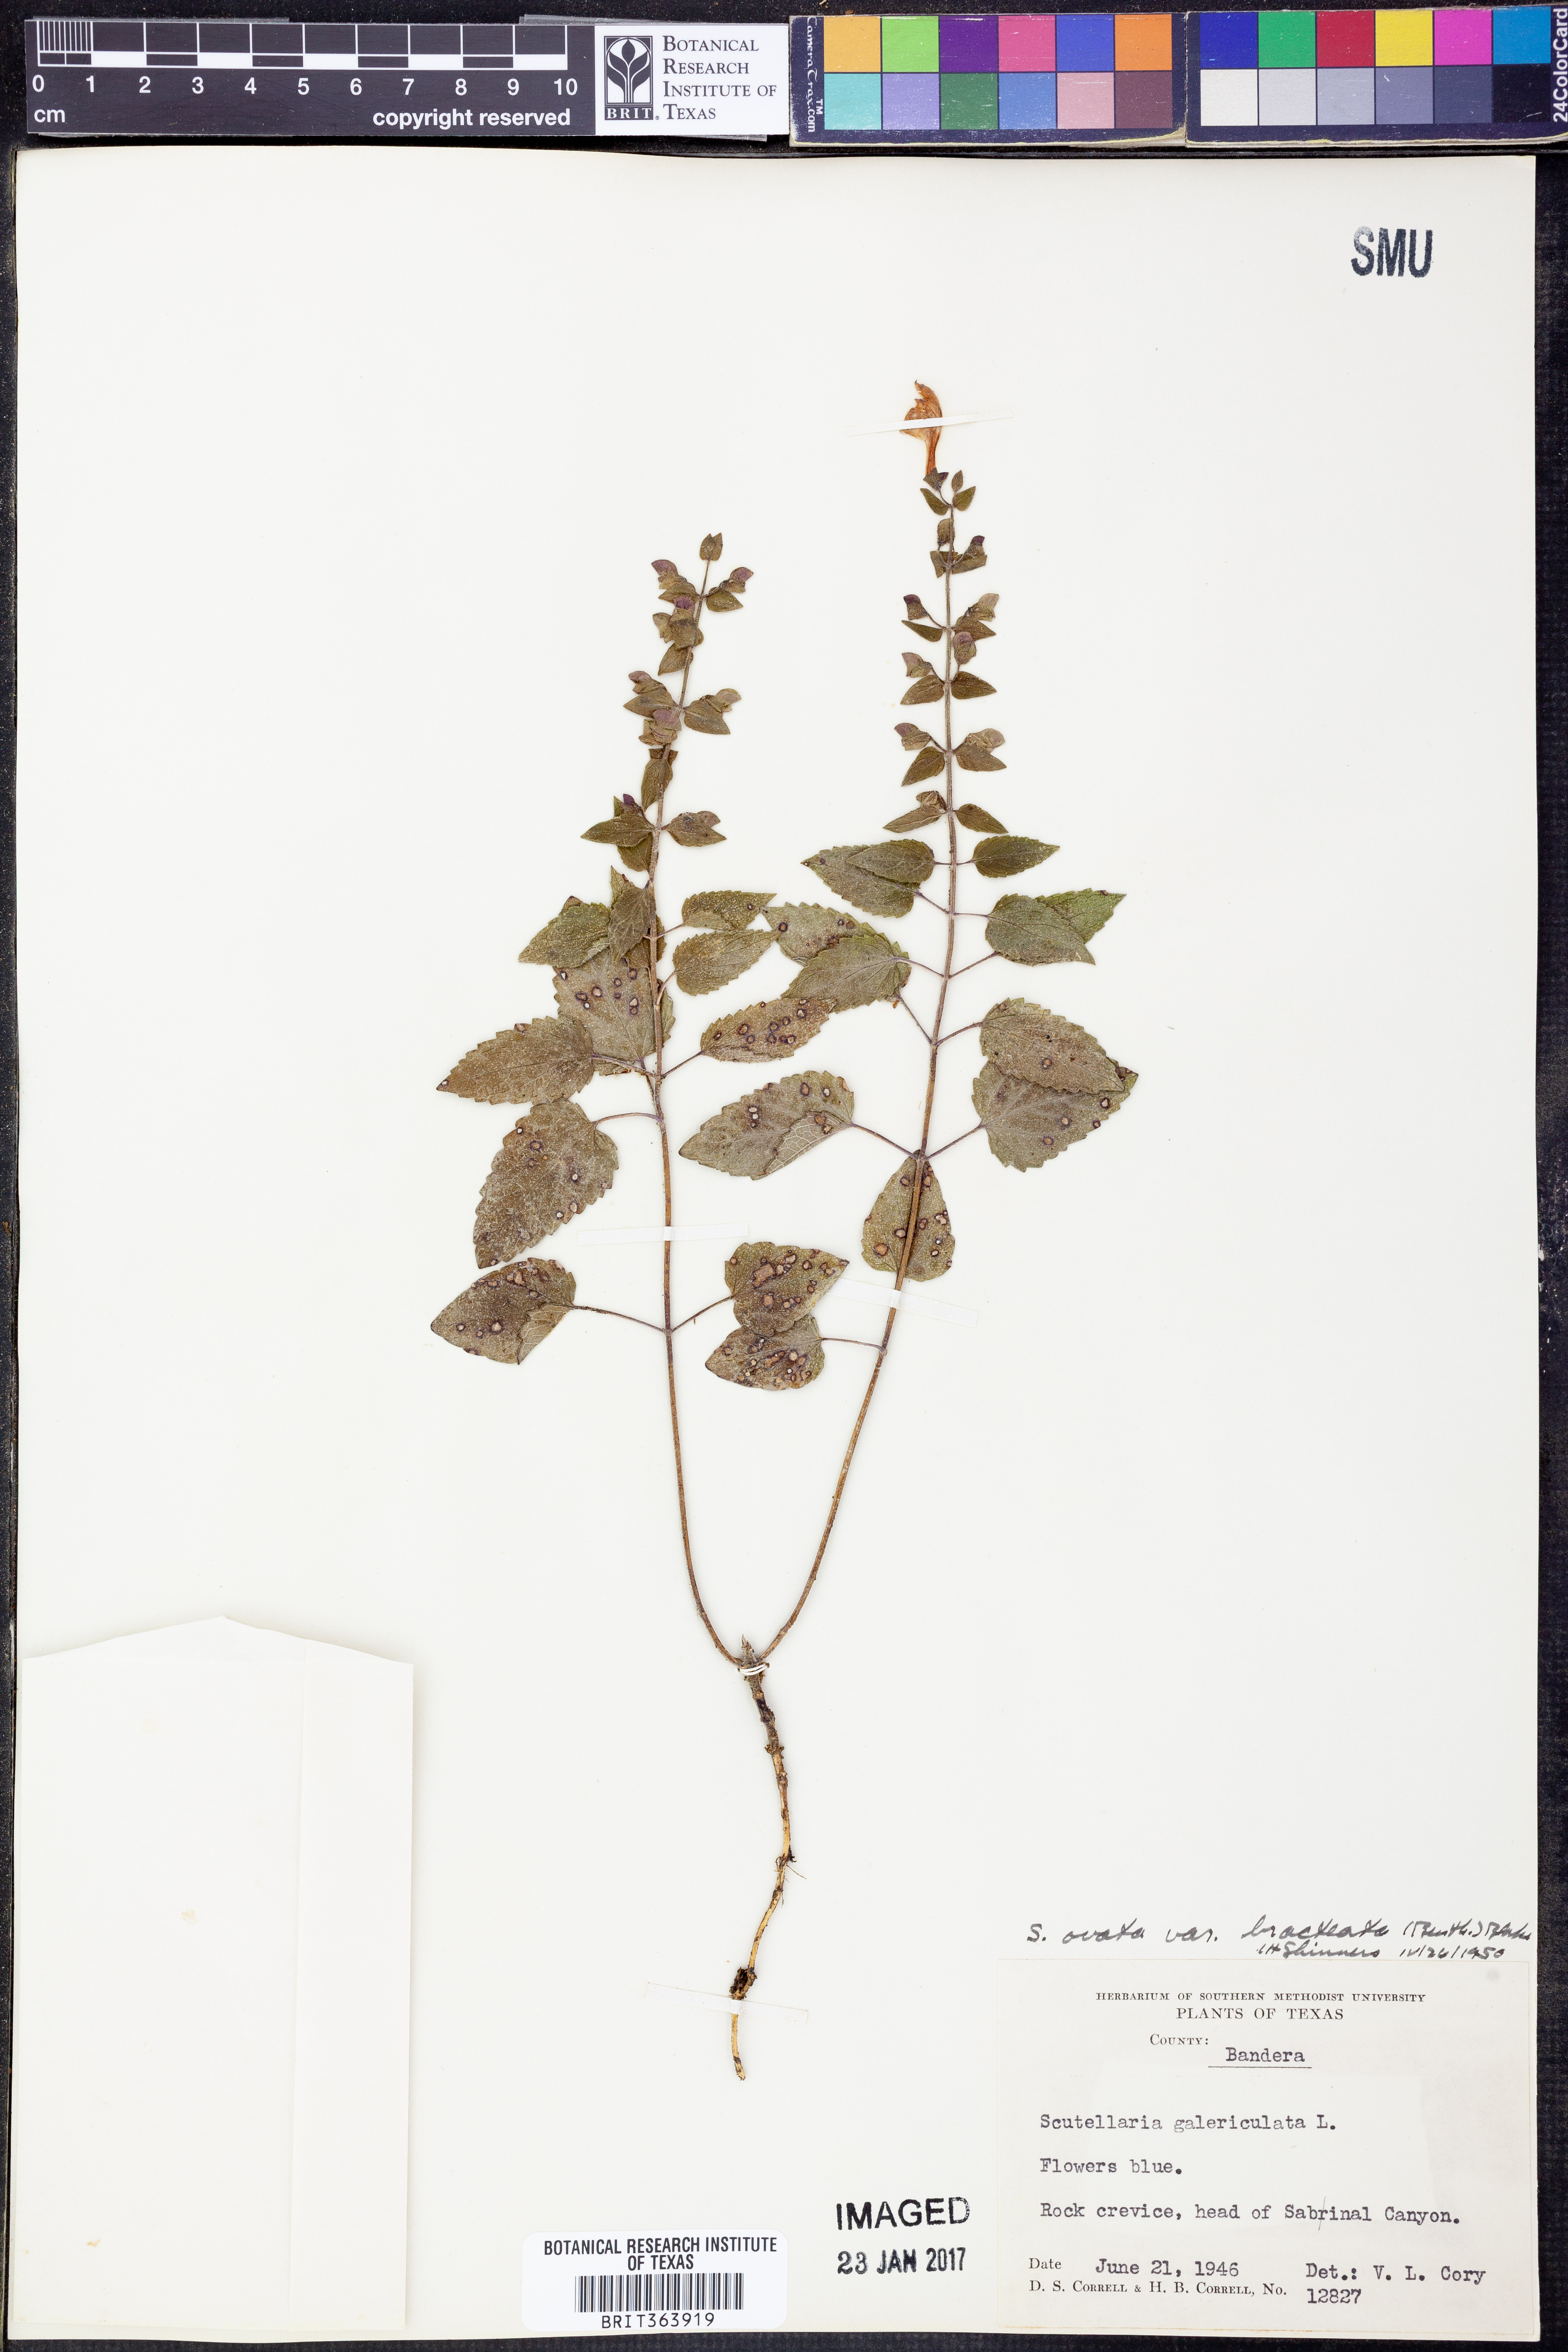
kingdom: Plantae
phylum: Tracheophyta
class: Magnoliopsida
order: Lamiales
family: Lamiaceae
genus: Scutellaria
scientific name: Scutellaria ovata
